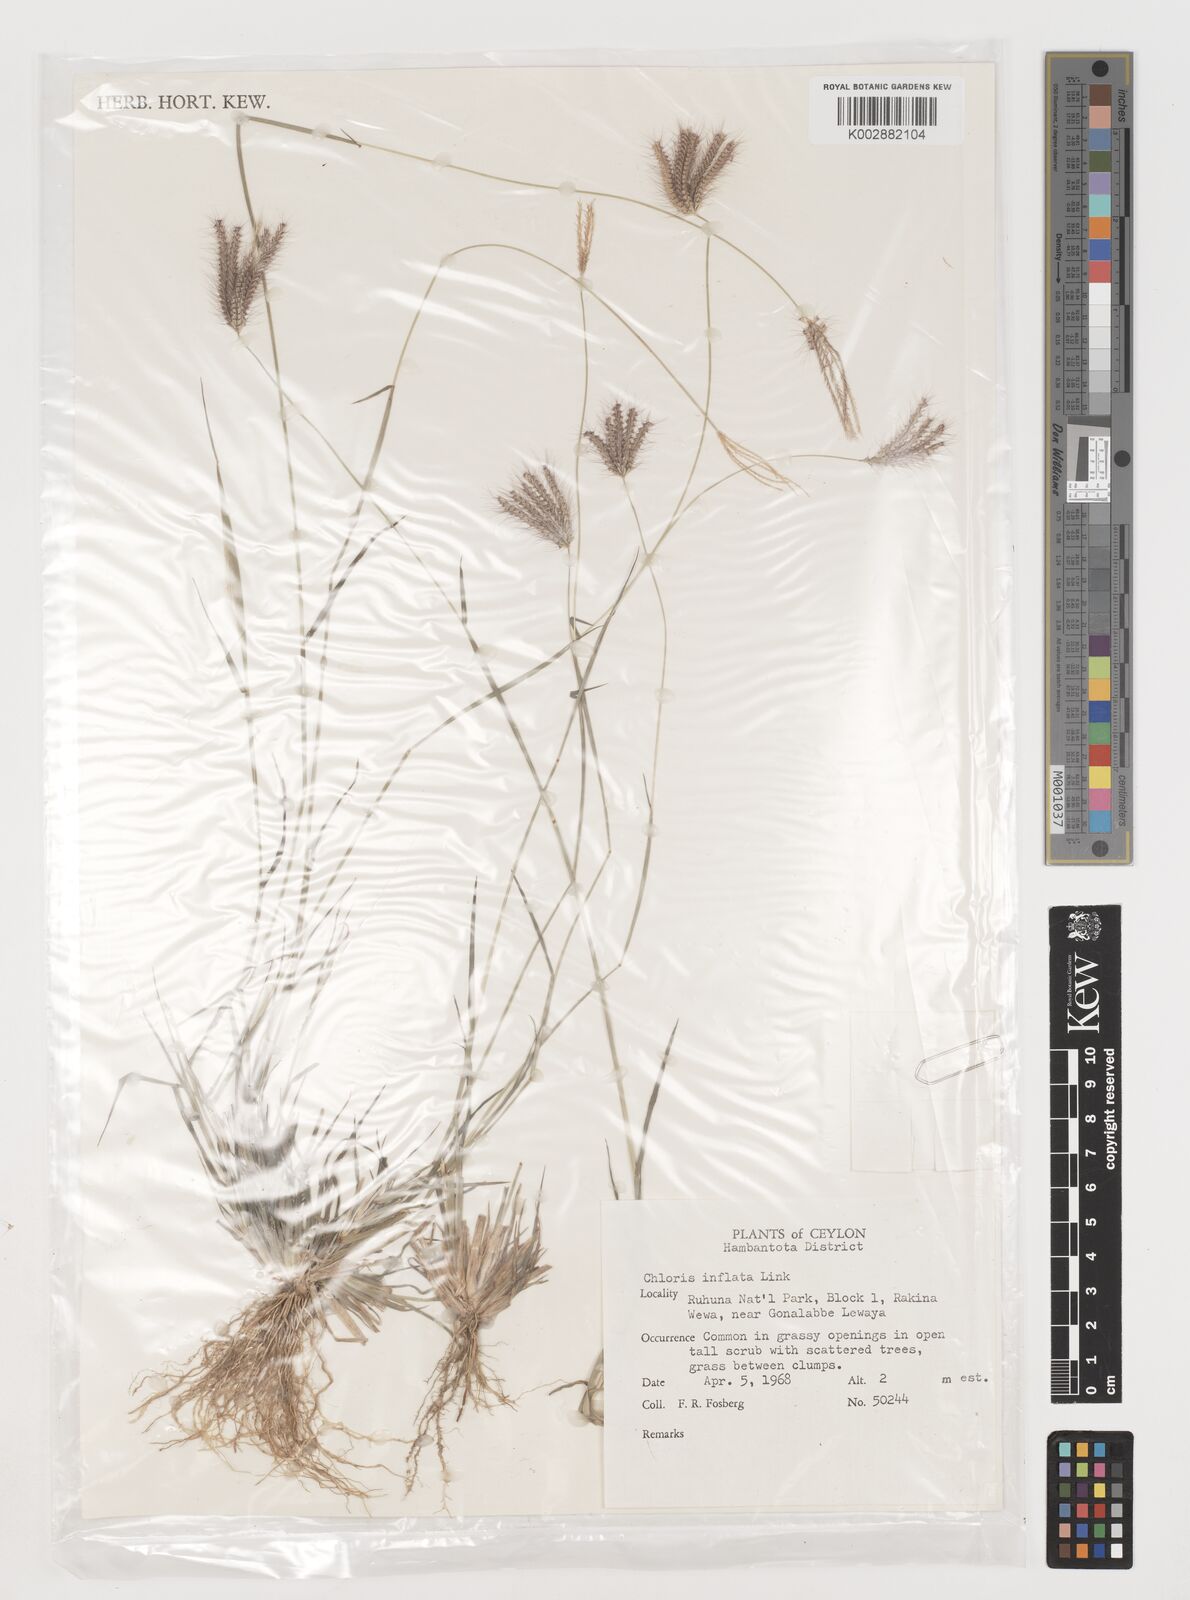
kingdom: Plantae
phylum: Tracheophyta
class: Liliopsida
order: Poales
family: Poaceae
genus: Chloris
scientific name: Chloris barbata
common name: Swollen fingergrass
